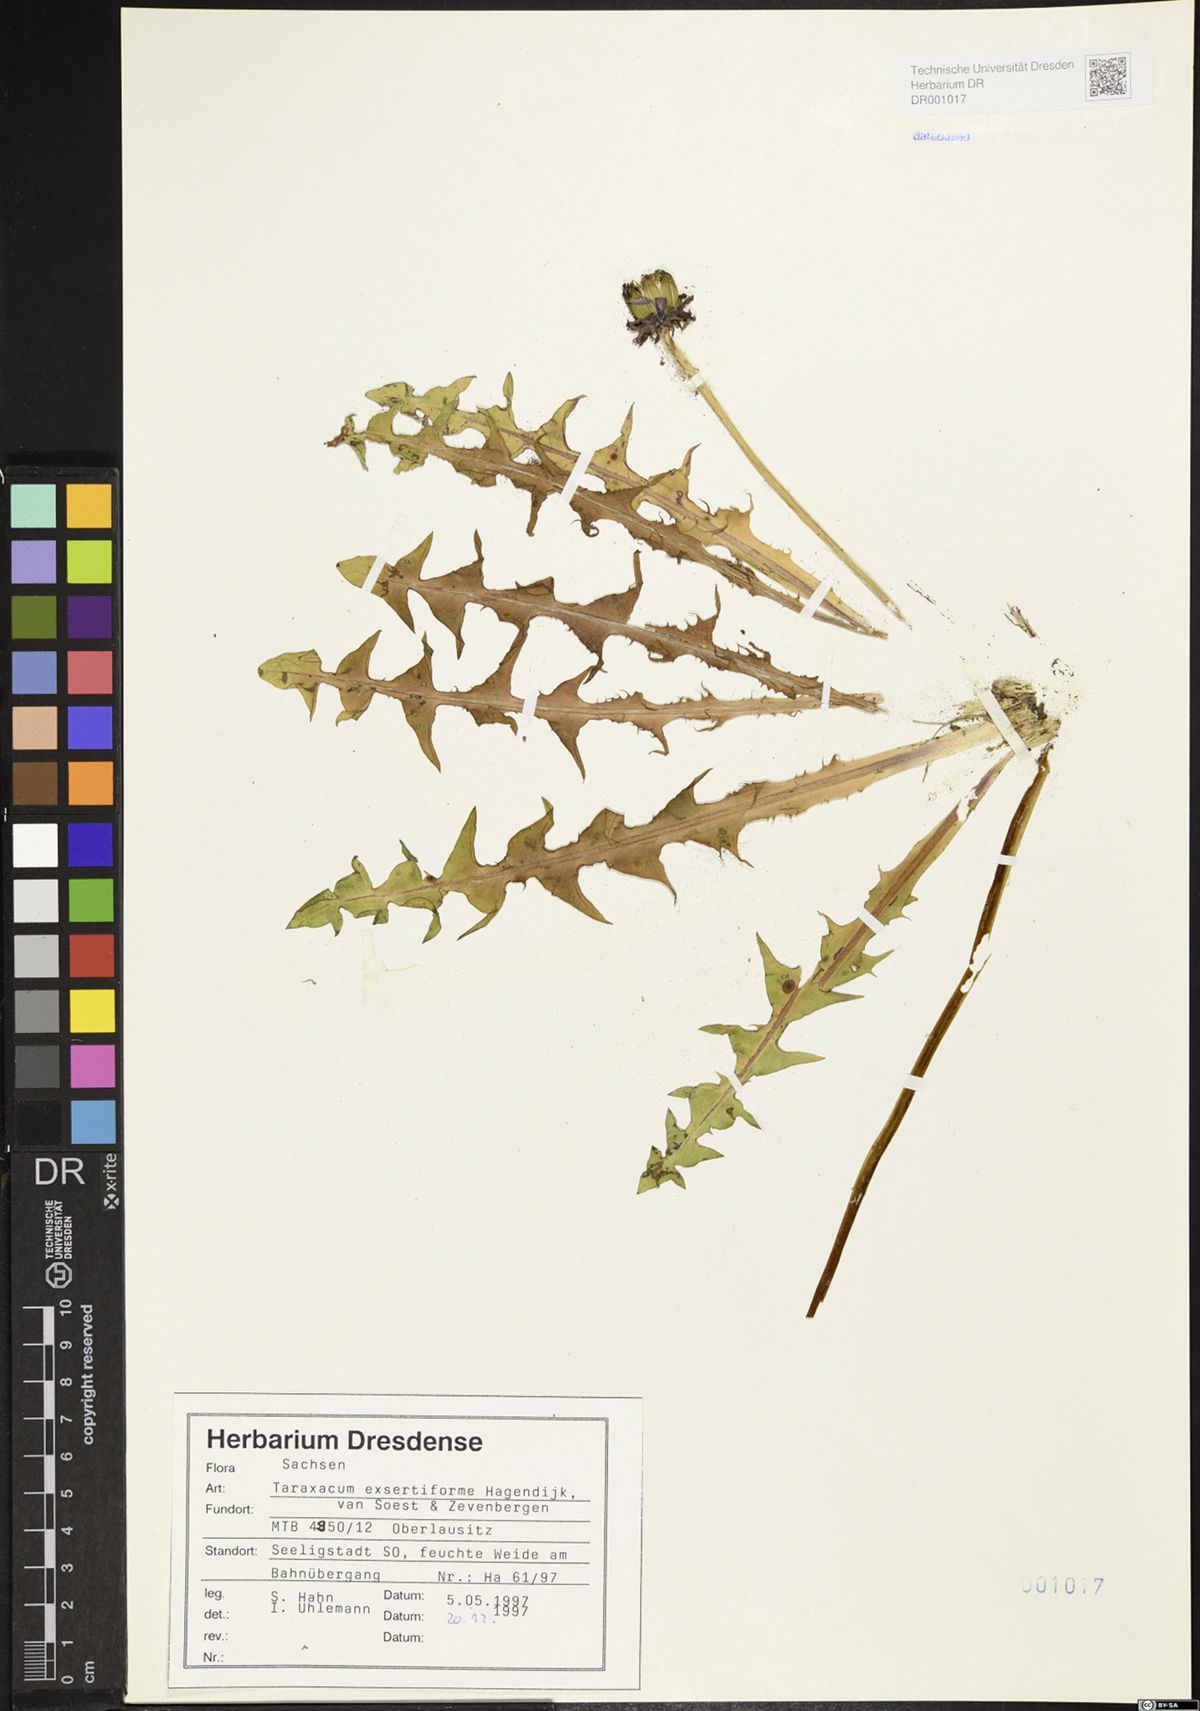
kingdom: Plantae
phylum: Tracheophyta
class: Magnoliopsida
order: Asterales
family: Asteraceae
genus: Taraxacum
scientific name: Taraxacum exsertiforme
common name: Erect-bracted dandelion
